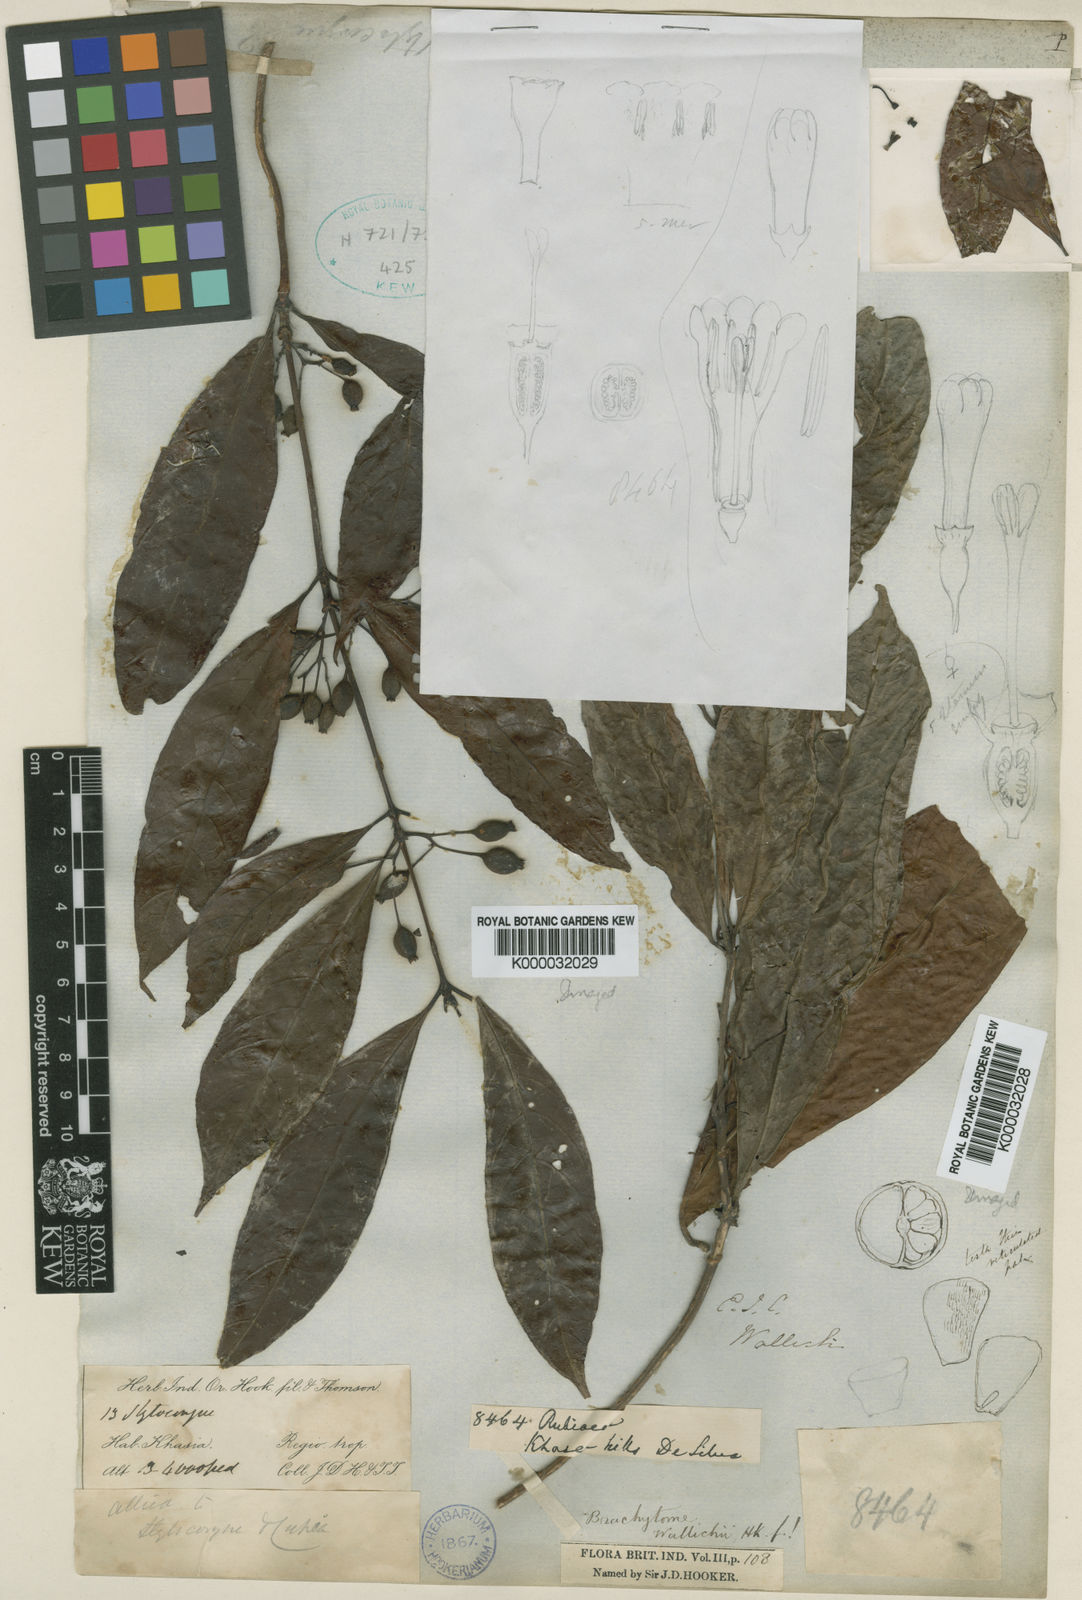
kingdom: Plantae
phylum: Tracheophyta
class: Magnoliopsida
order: Gentianales
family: Rubiaceae
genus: Brachytome
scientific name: Brachytome wallichii
